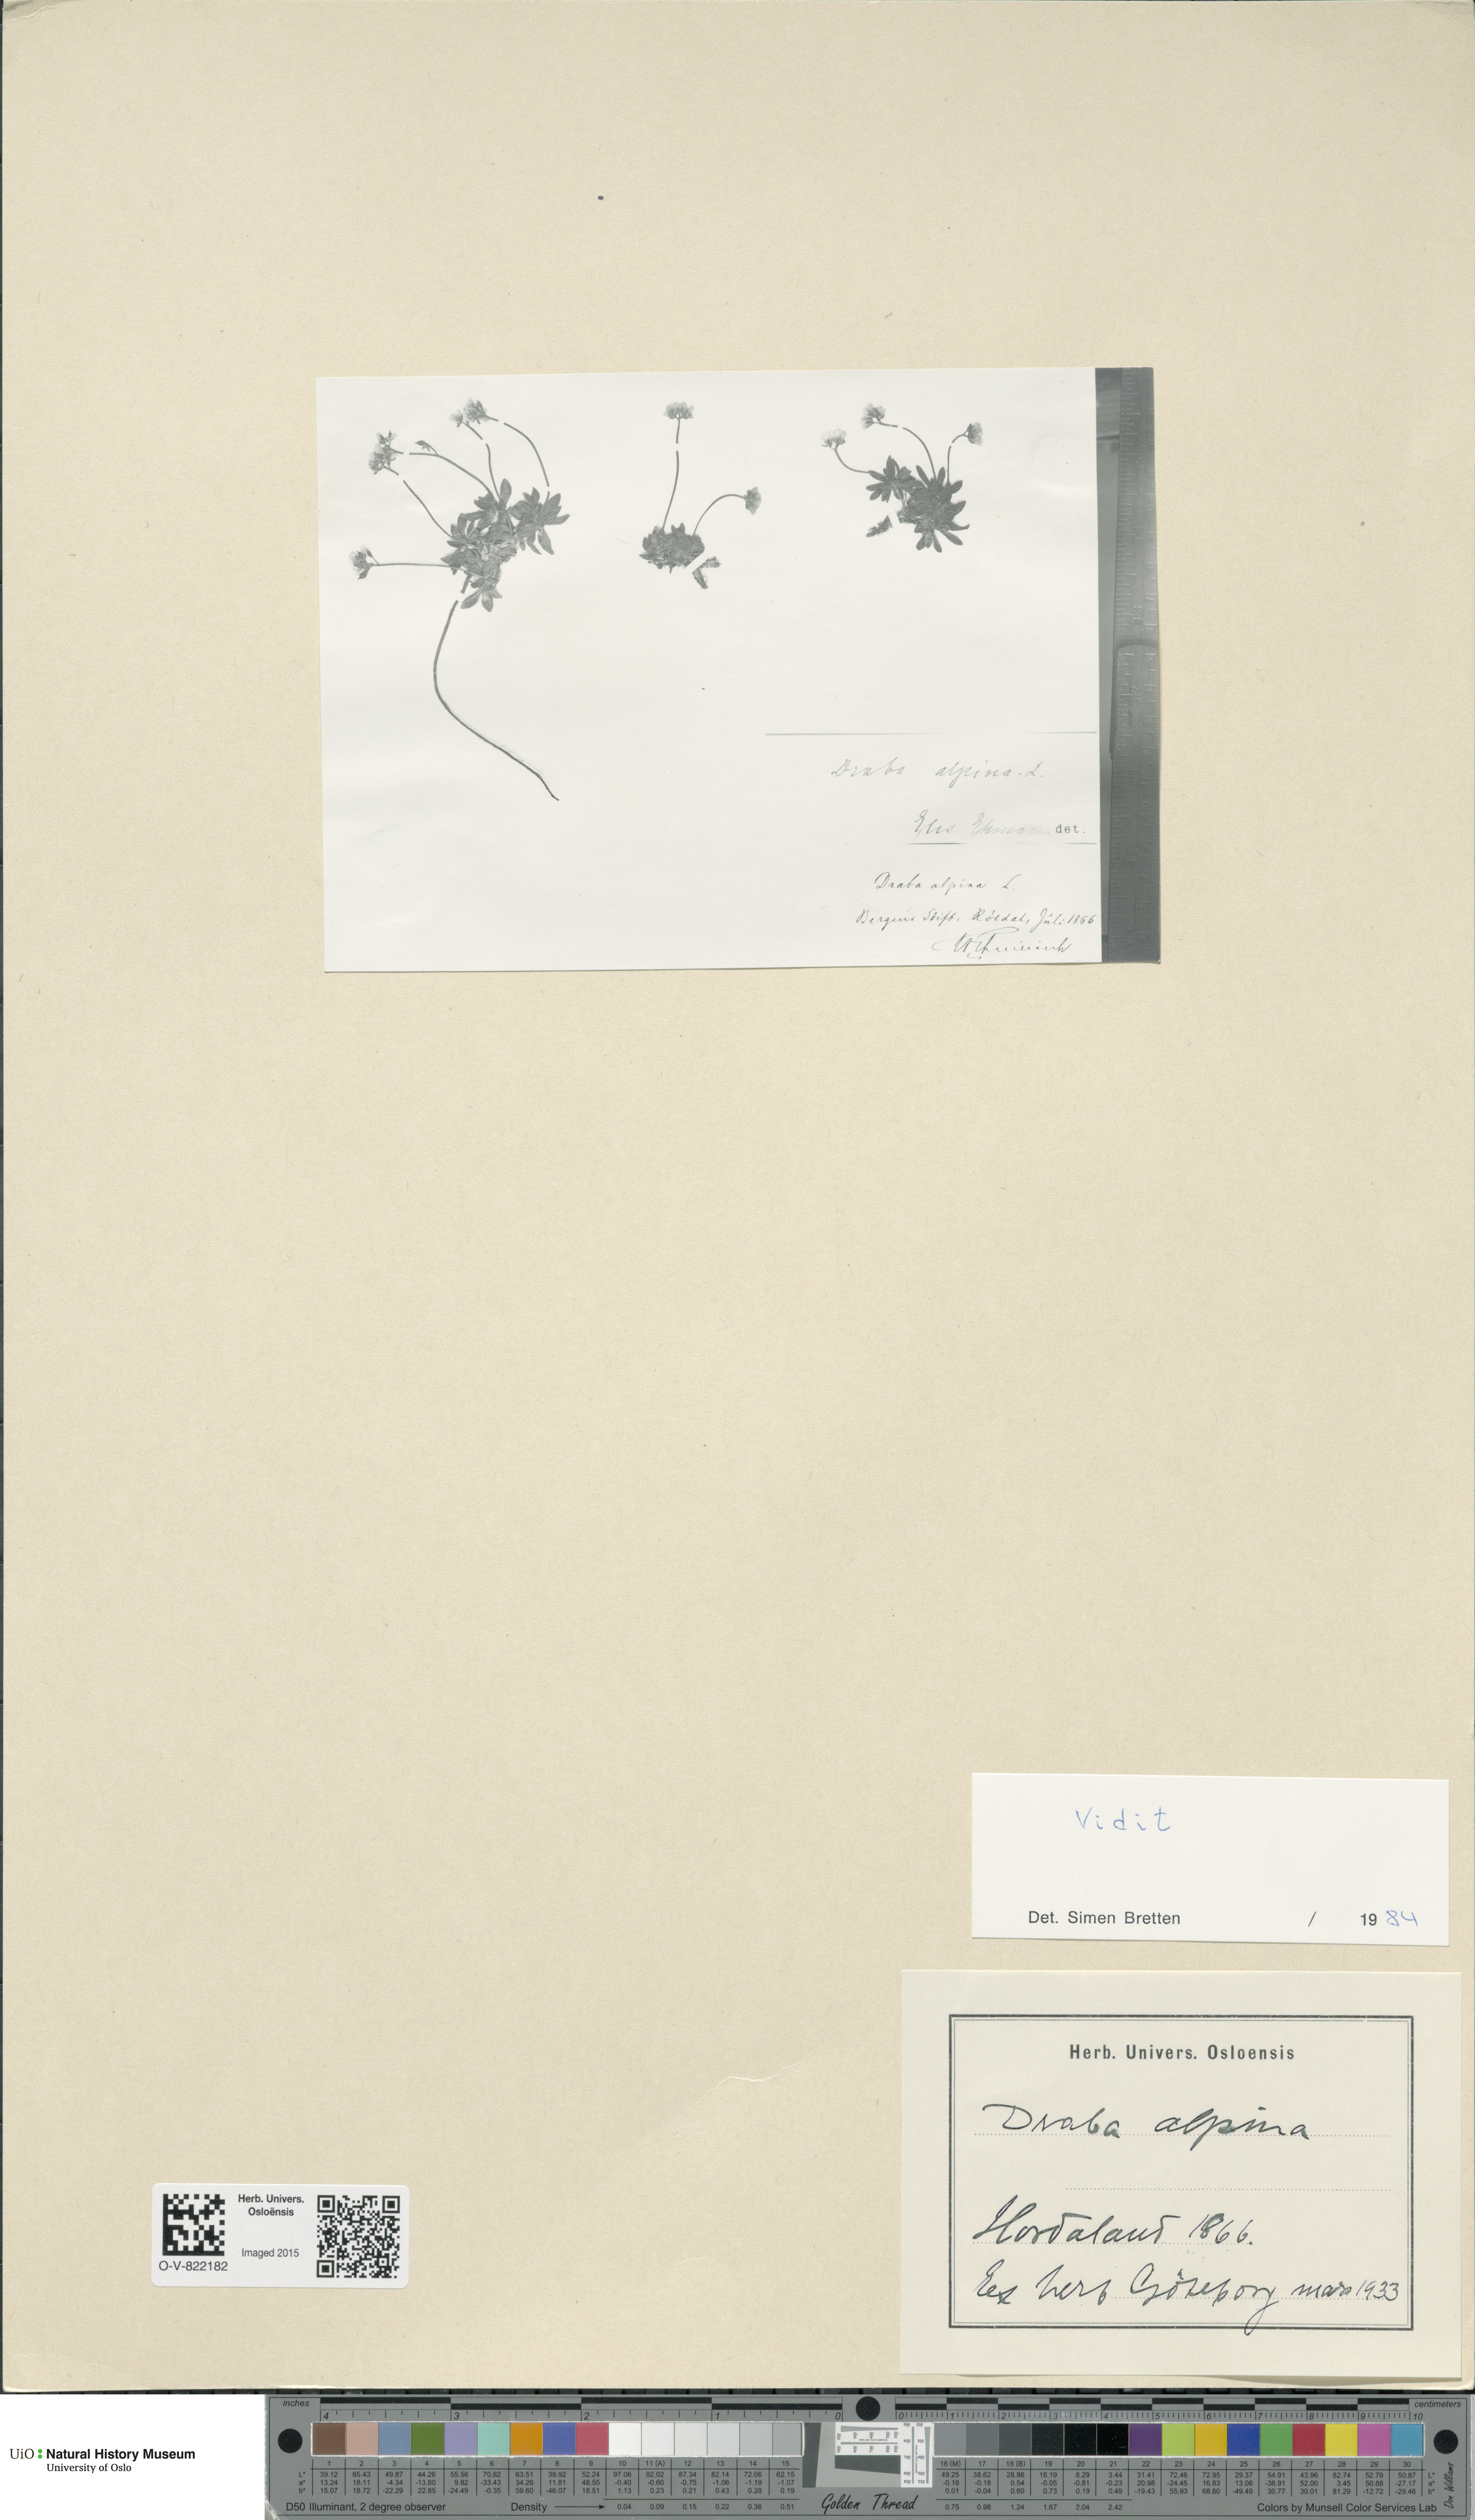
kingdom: Plantae
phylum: Tracheophyta
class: Magnoliopsida
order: Brassicales
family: Brassicaceae
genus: Draba
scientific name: Draba alpina
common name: Alpine draba
